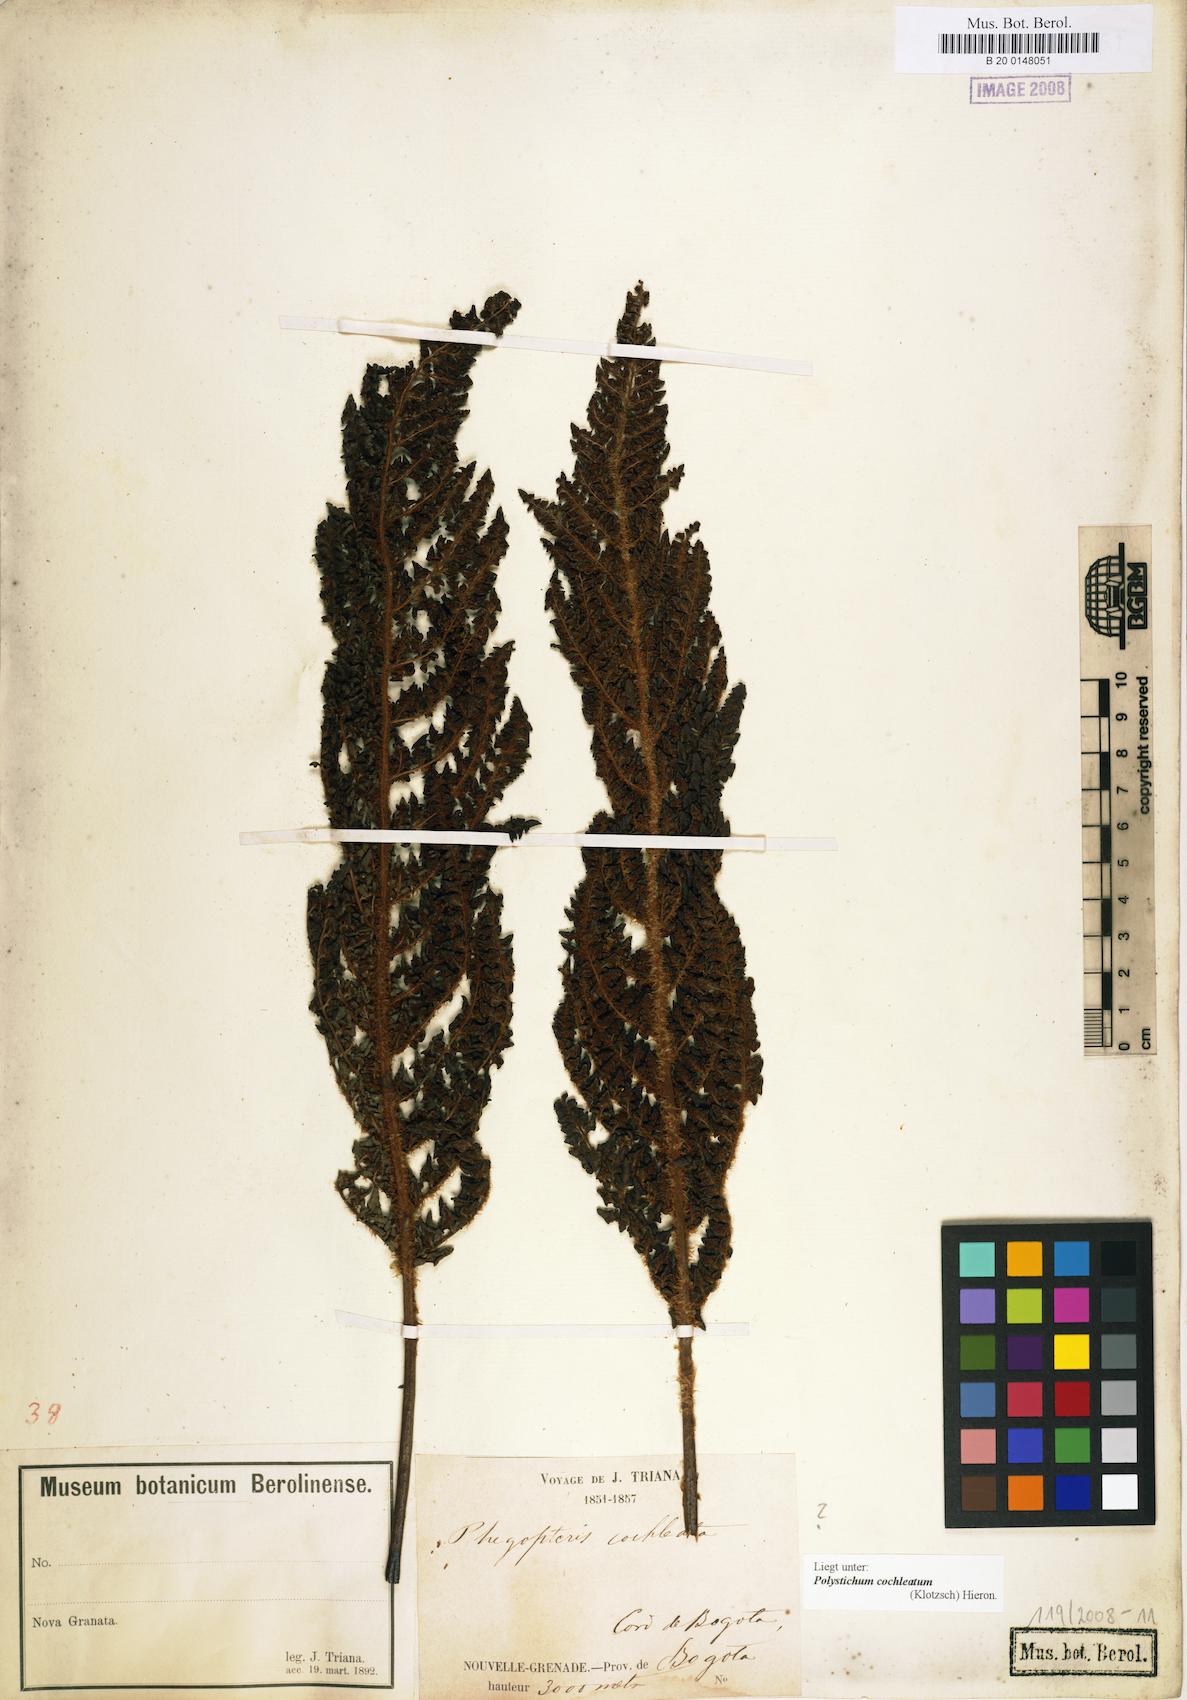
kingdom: Plantae
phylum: Tracheophyta
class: Polypodiopsida
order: Polypodiales
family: Dryopteridaceae
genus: Polystichum
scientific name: Polystichum cochleatum
